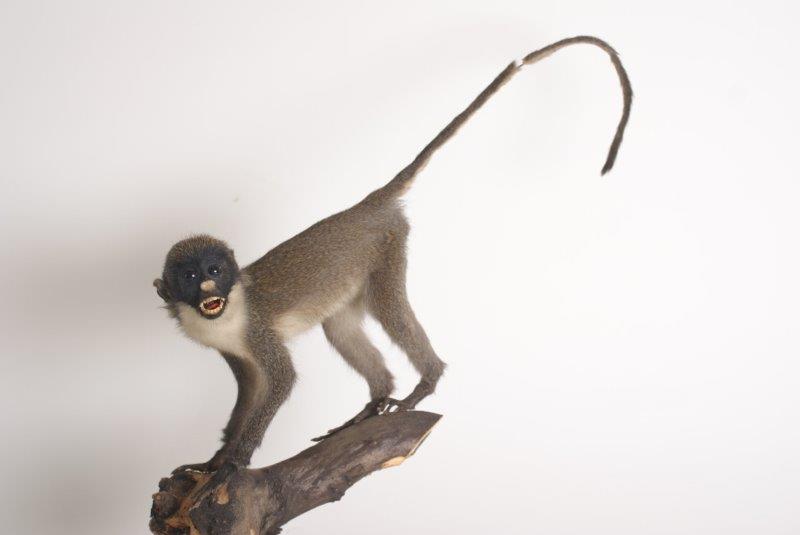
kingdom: Animalia
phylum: Chordata
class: Mammalia
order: Primates
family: Cercopithecidae
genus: Cercopithecus
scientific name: Cercopithecus petaurista
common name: Lesser Spot-nosed Monkey
